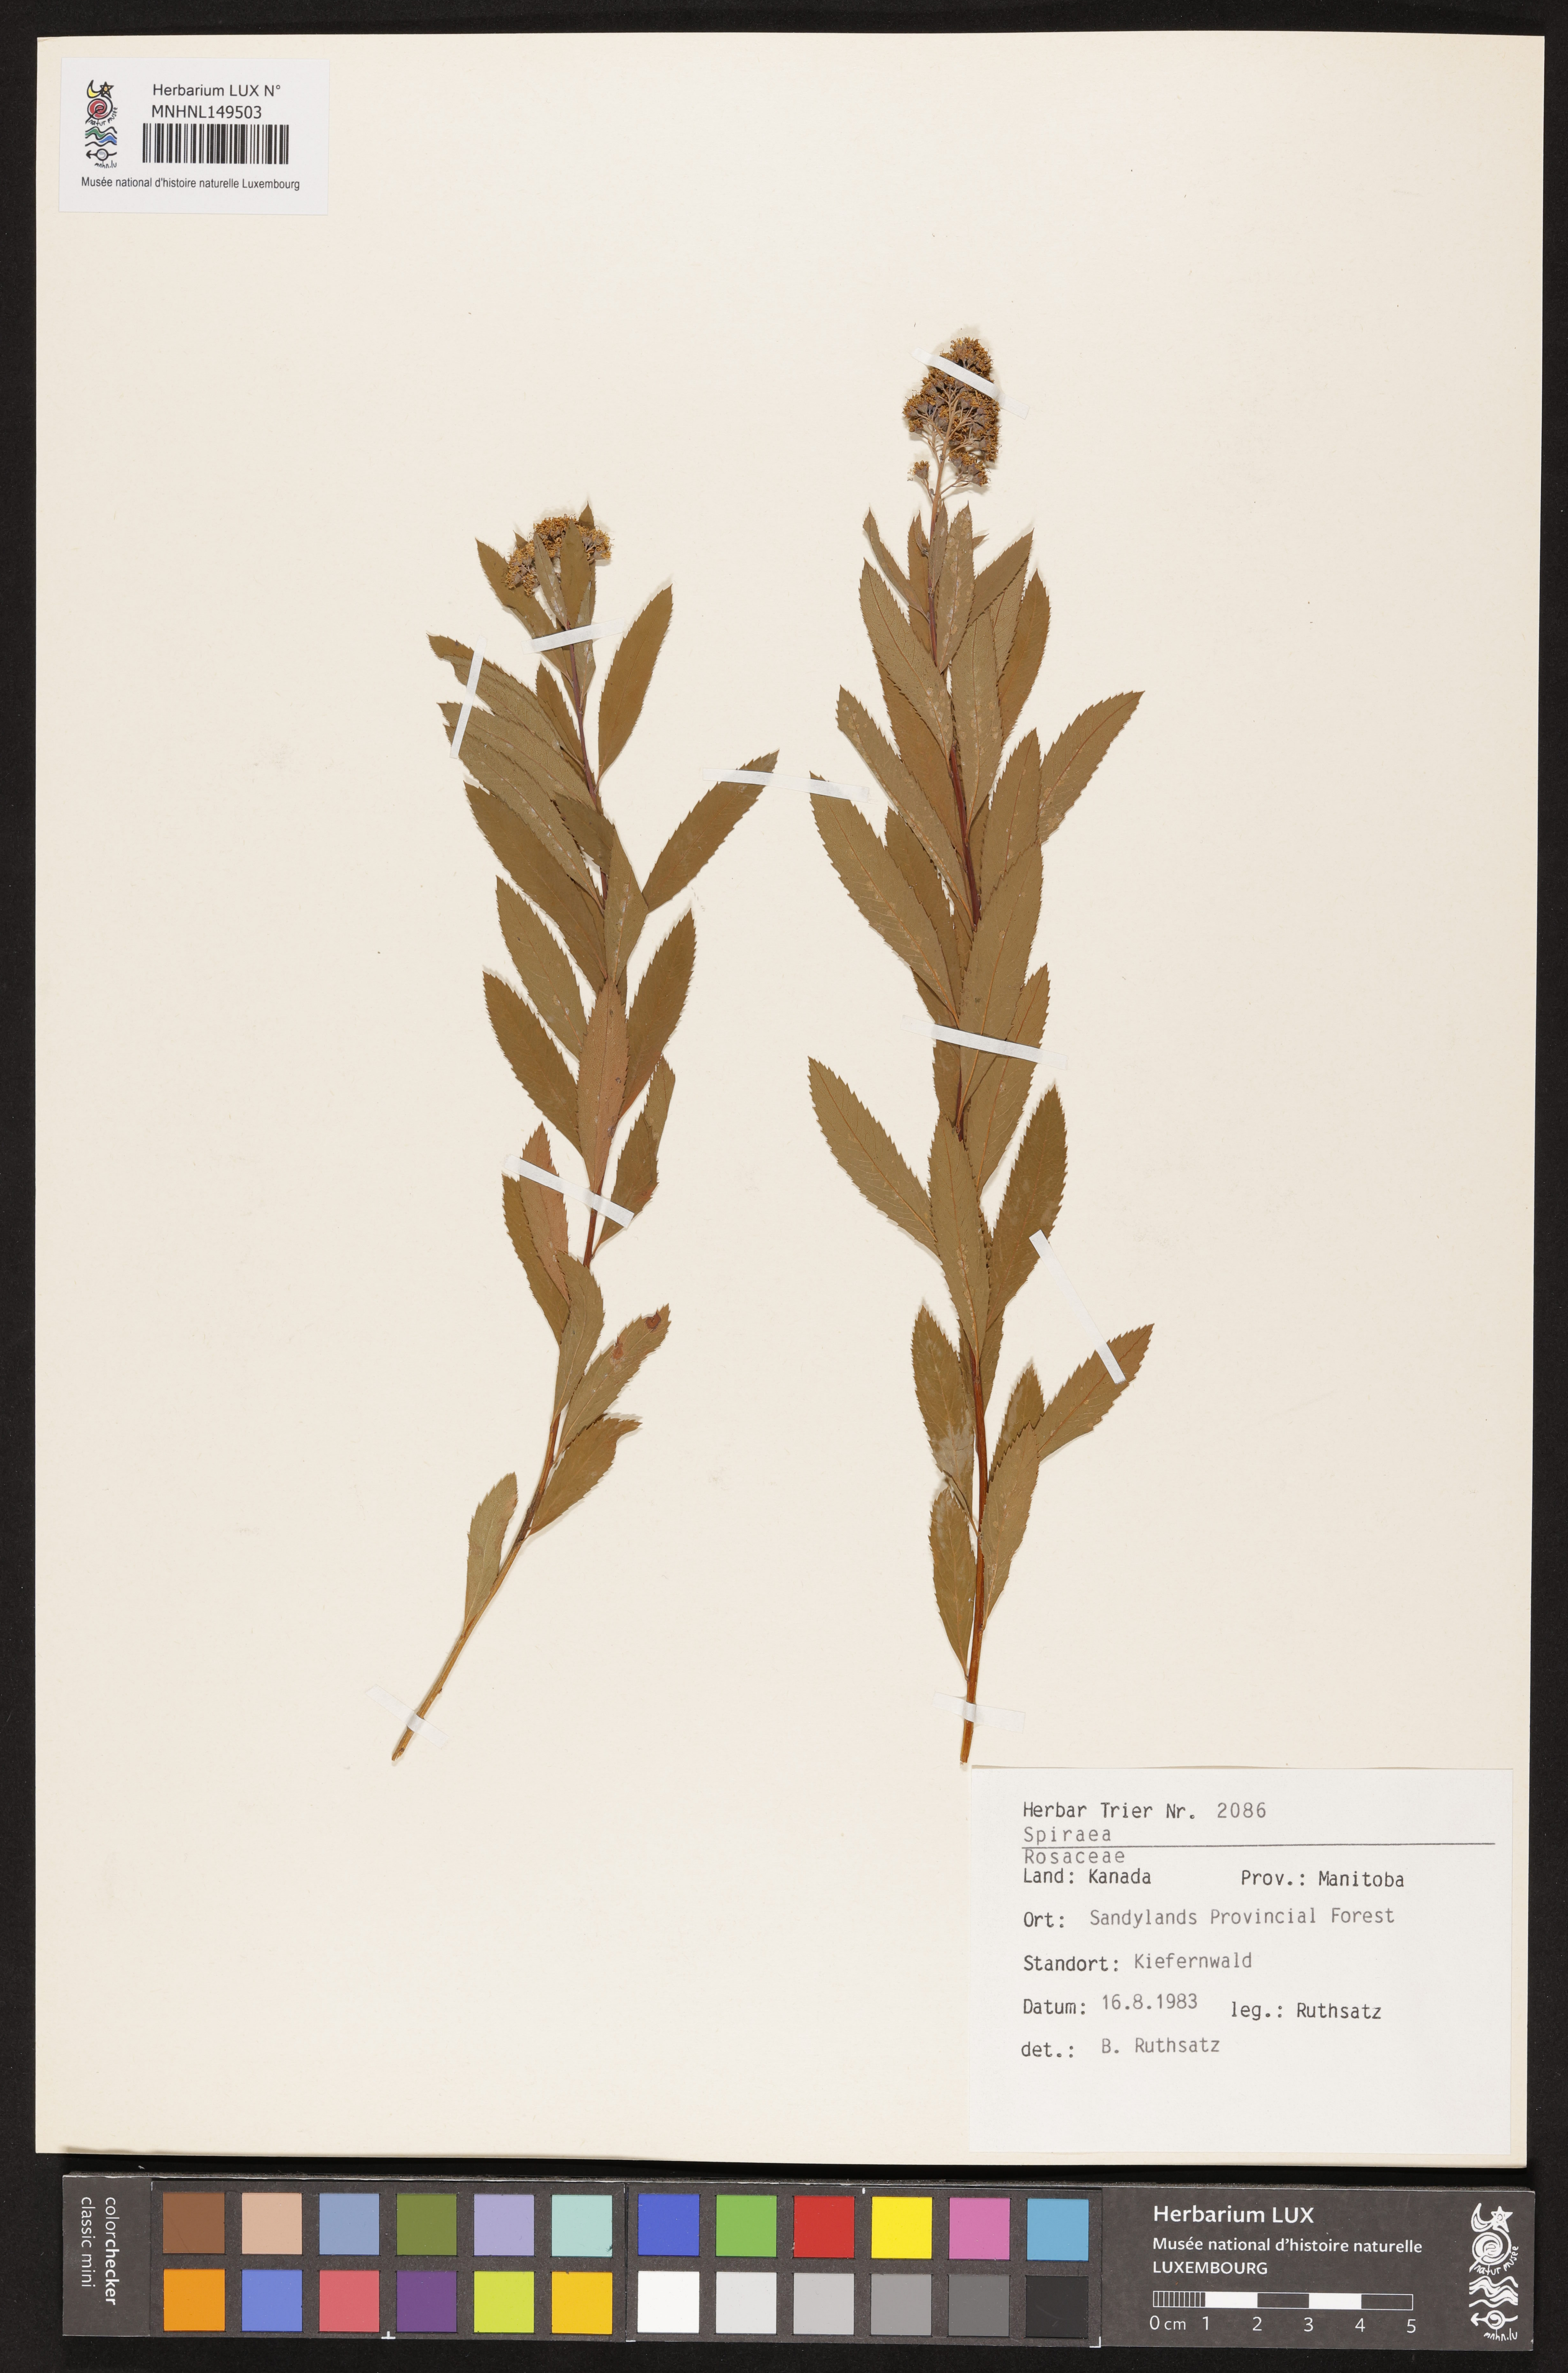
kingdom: Plantae
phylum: Tracheophyta
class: Magnoliopsida
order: Rosales
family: Rosaceae
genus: Spiraea
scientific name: Spiraea
